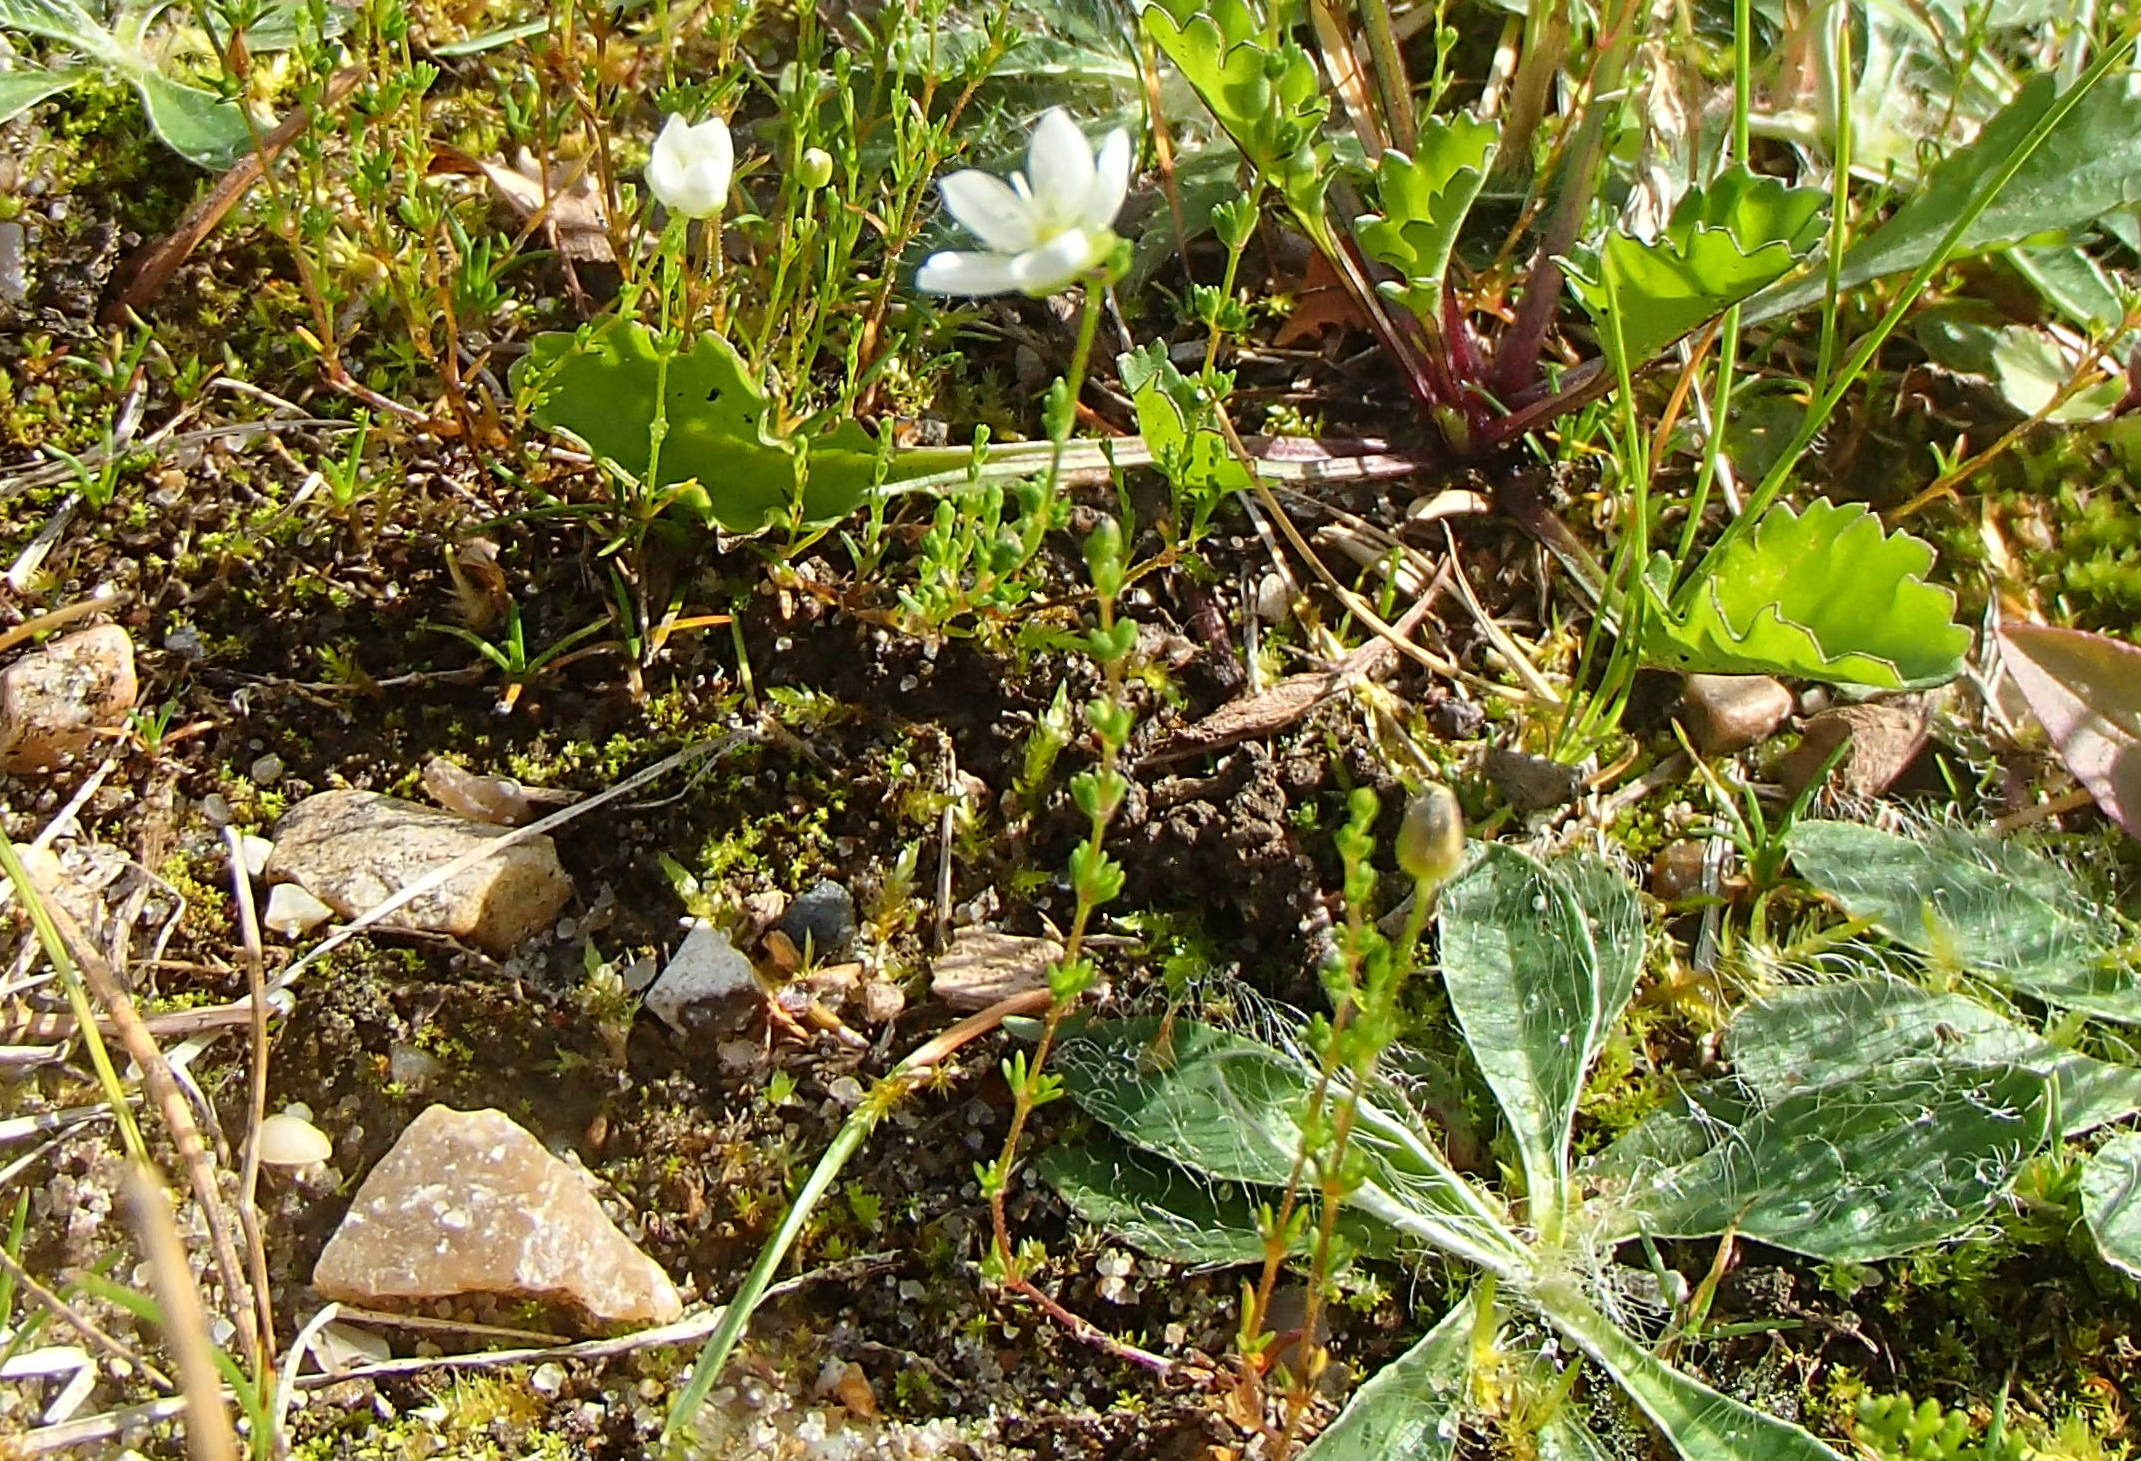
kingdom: Plantae
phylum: Tracheophyta
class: Magnoliopsida
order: Caryophyllales
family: Caryophyllaceae
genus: Sagina
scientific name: Sagina nodosa
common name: Knude-firling
